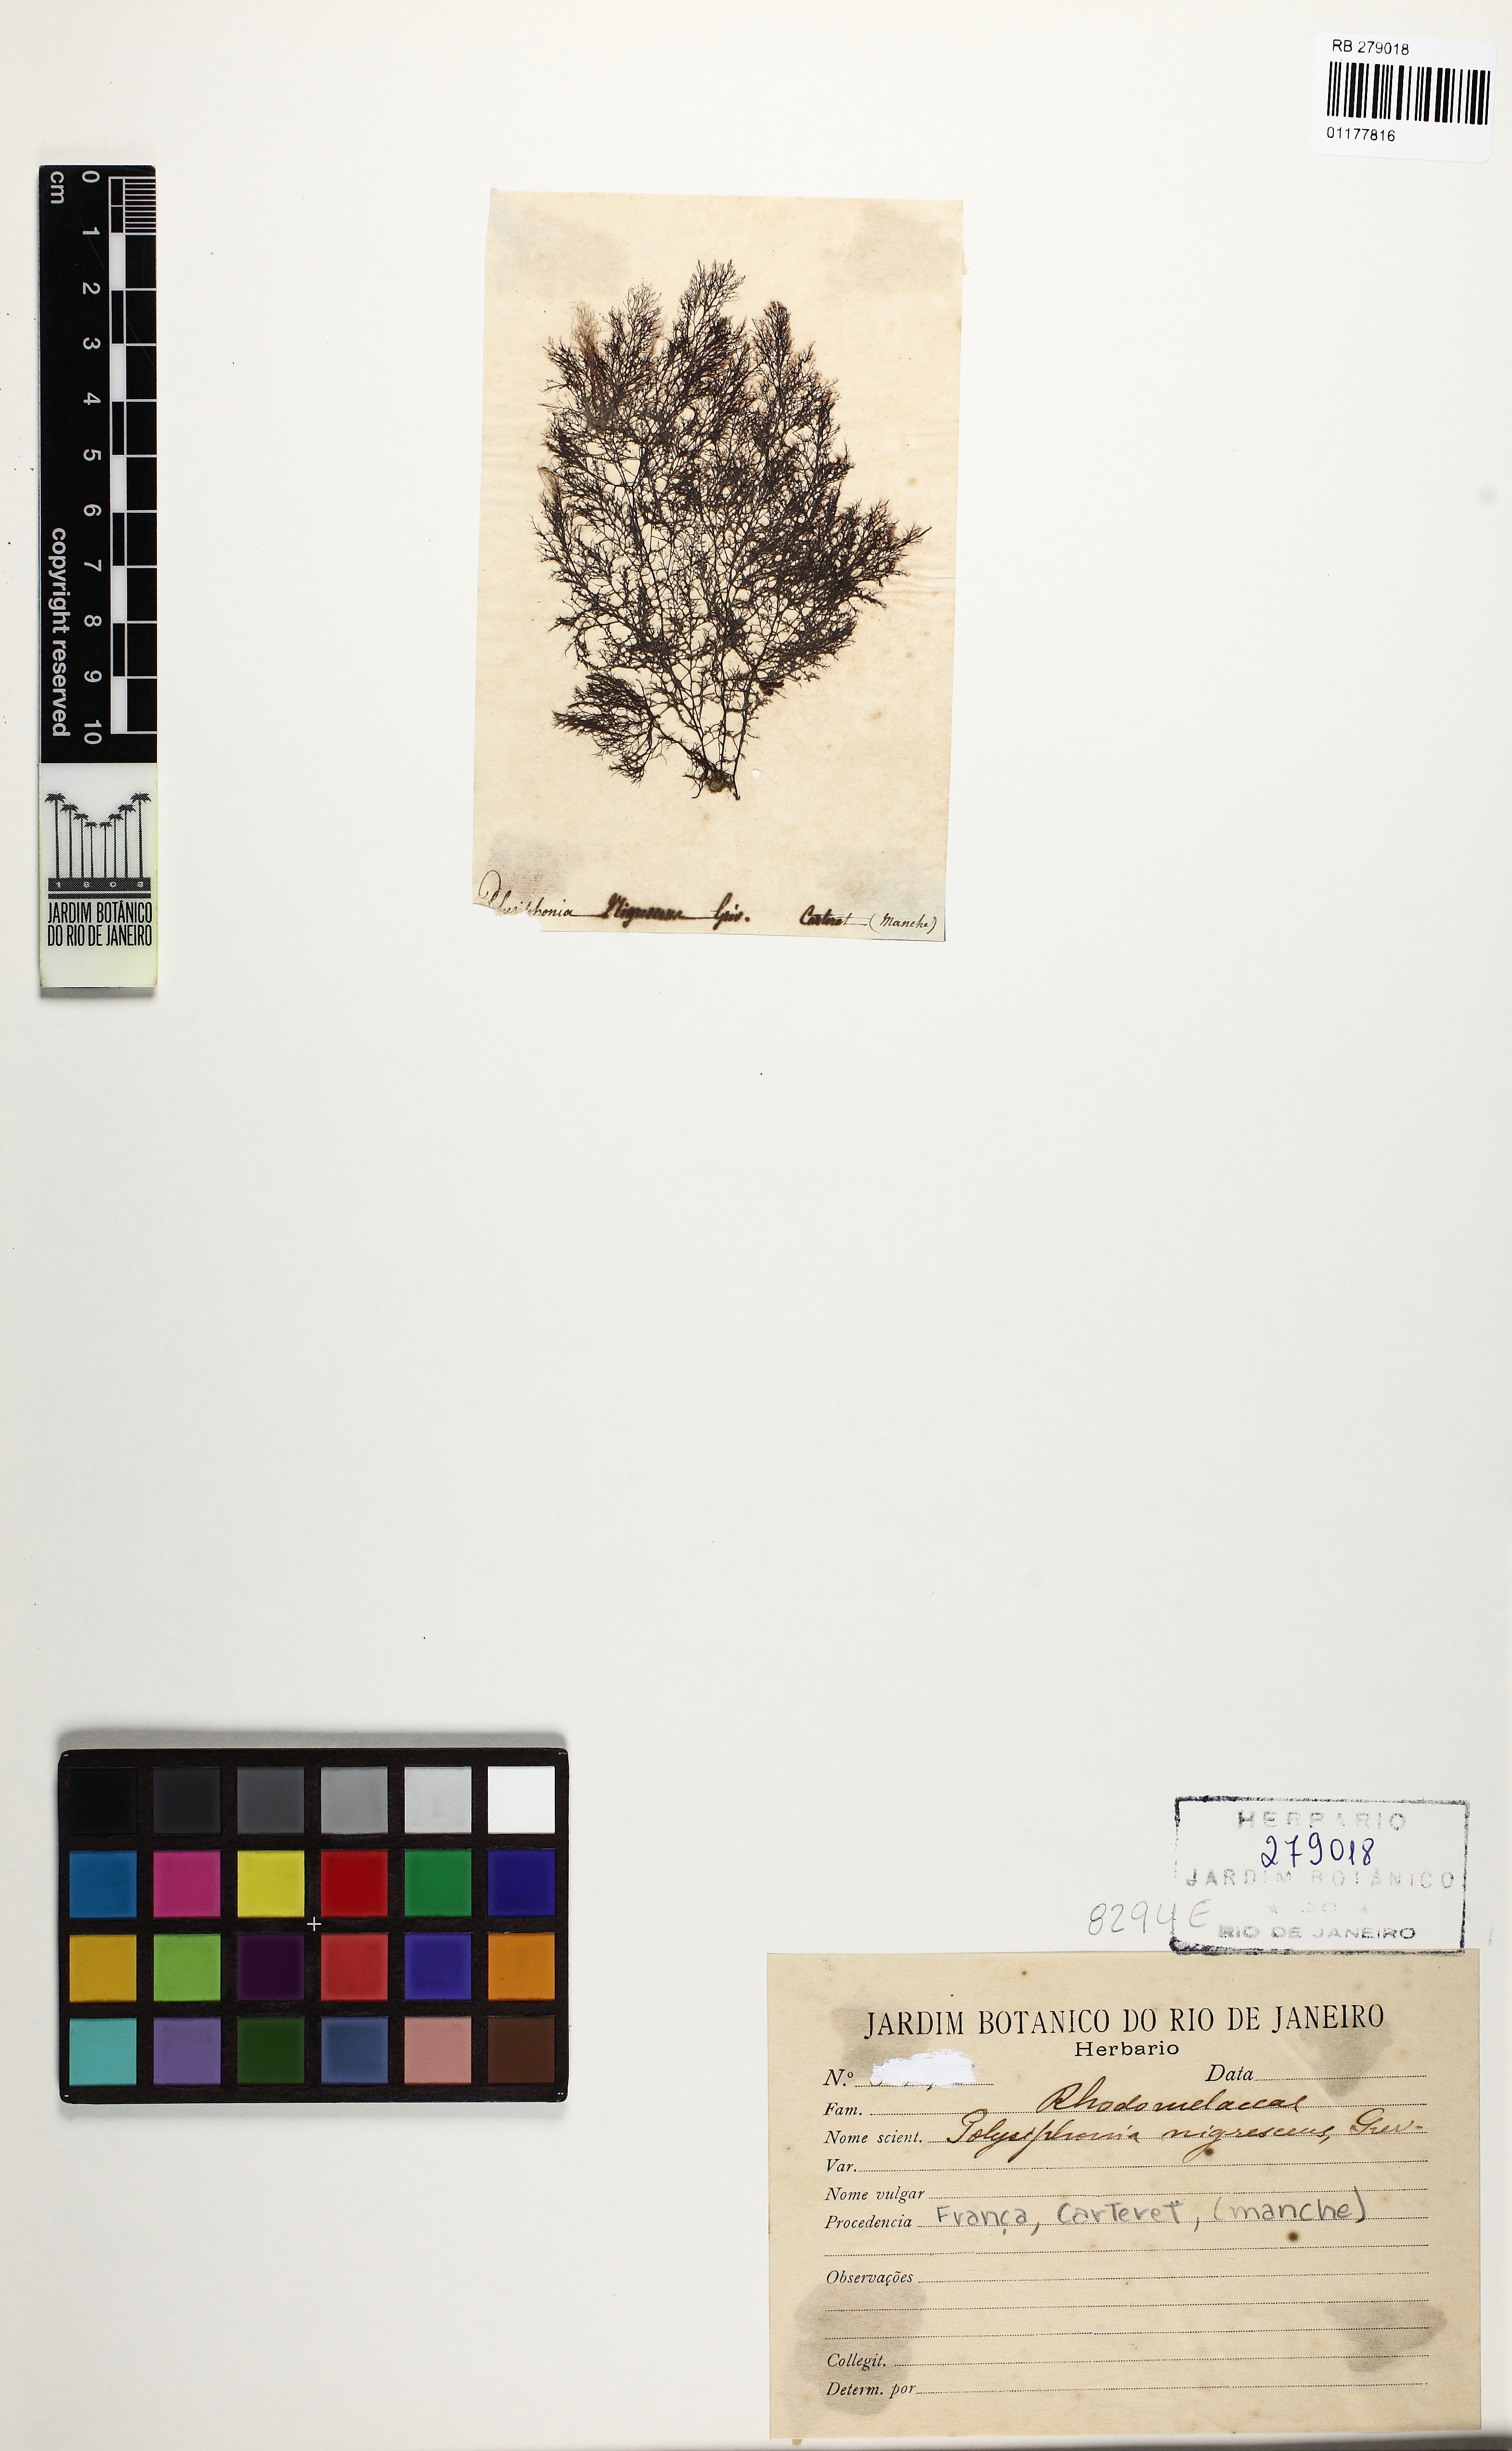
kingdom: Plantae
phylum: Rhodophyta
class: Florideophyceae
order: Ceramiales
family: Rhodomelaceae
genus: Vertebrata
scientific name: Vertebrata spec
